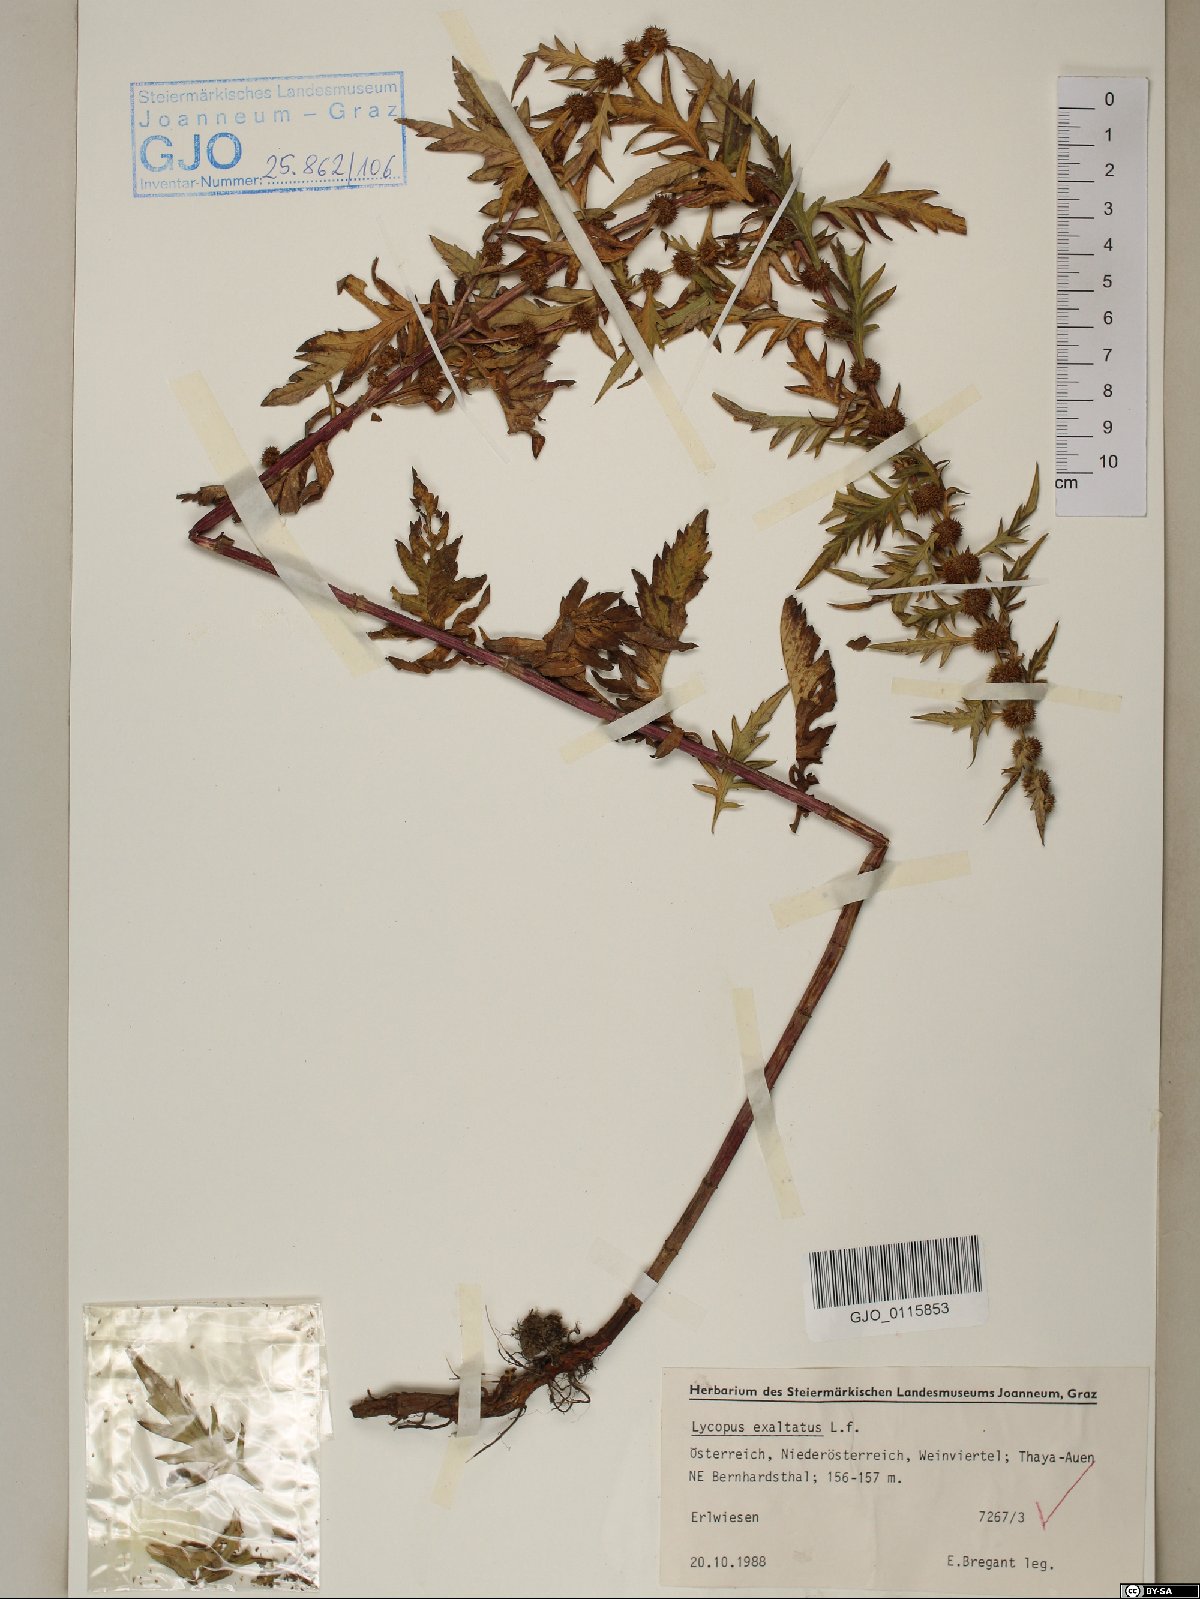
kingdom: Plantae
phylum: Tracheophyta
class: Magnoliopsida
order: Lamiales
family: Lamiaceae
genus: Lycopus
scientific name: Lycopus exaltatus
